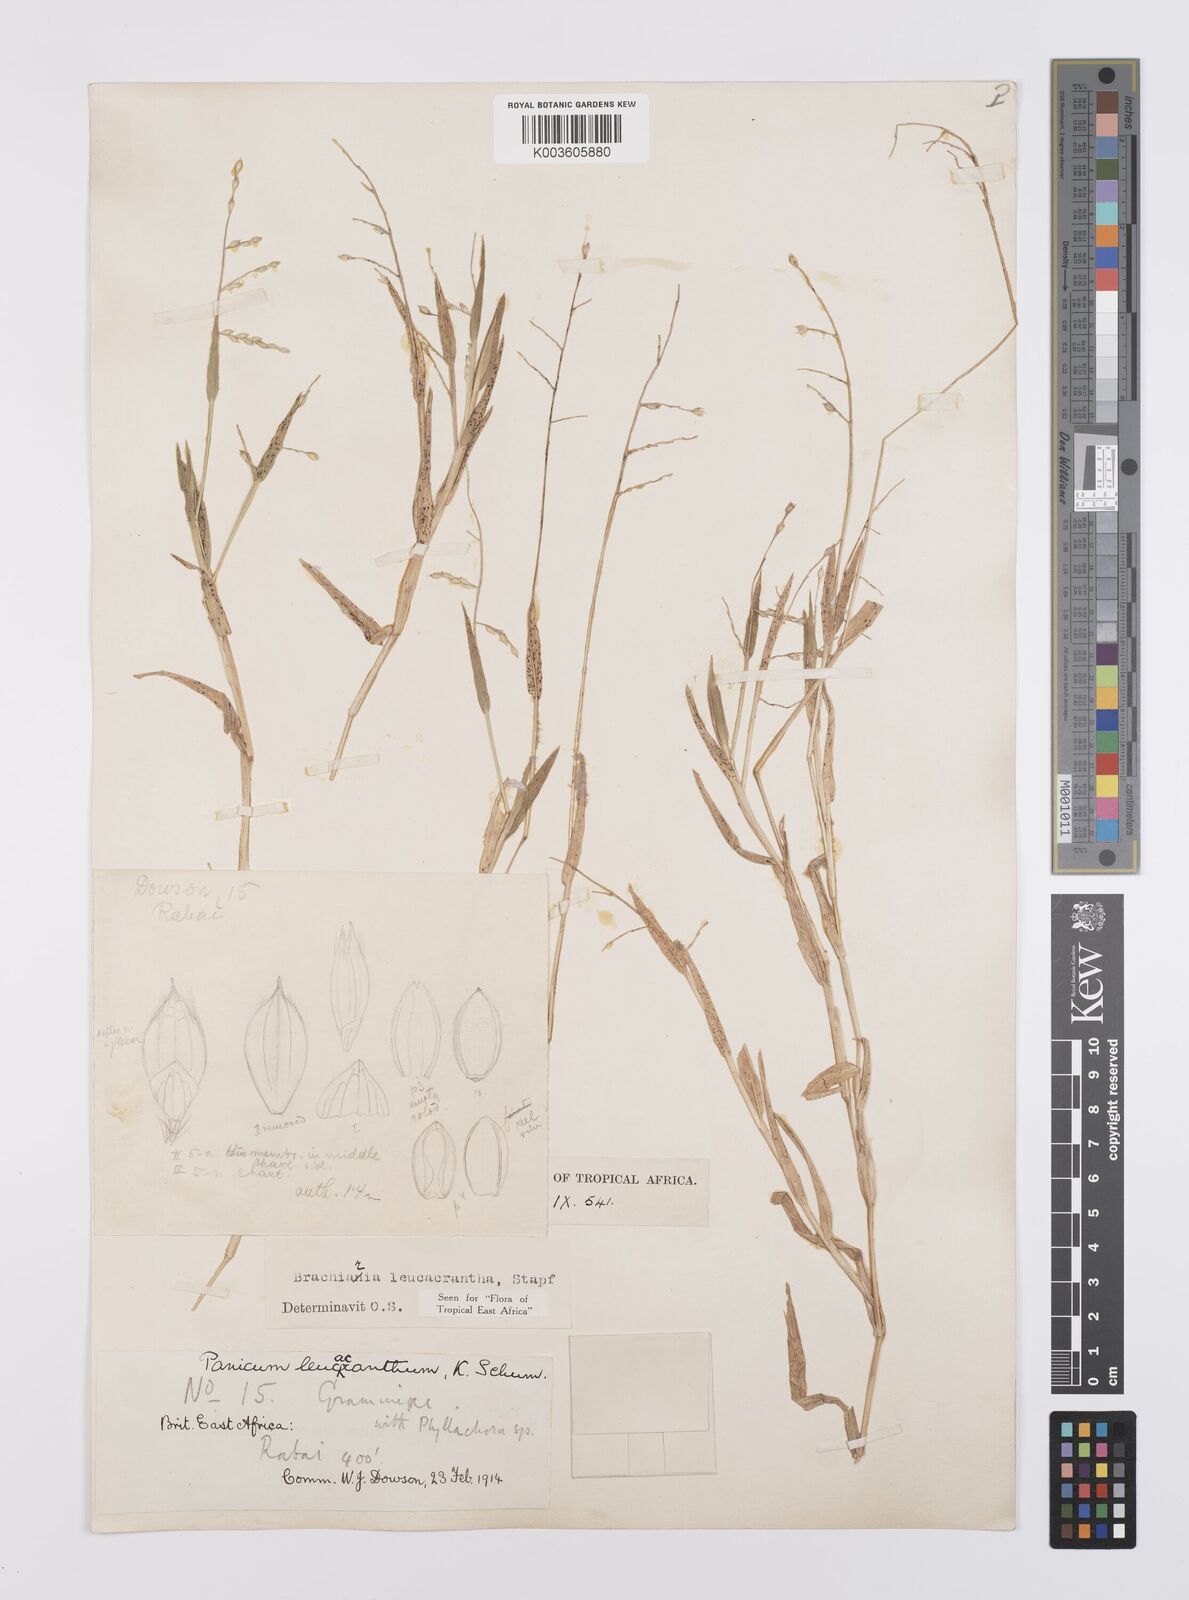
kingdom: Plantae
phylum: Tracheophyta
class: Liliopsida
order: Poales
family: Poaceae
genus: Urochloa
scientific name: Urochloa xantholeuca
